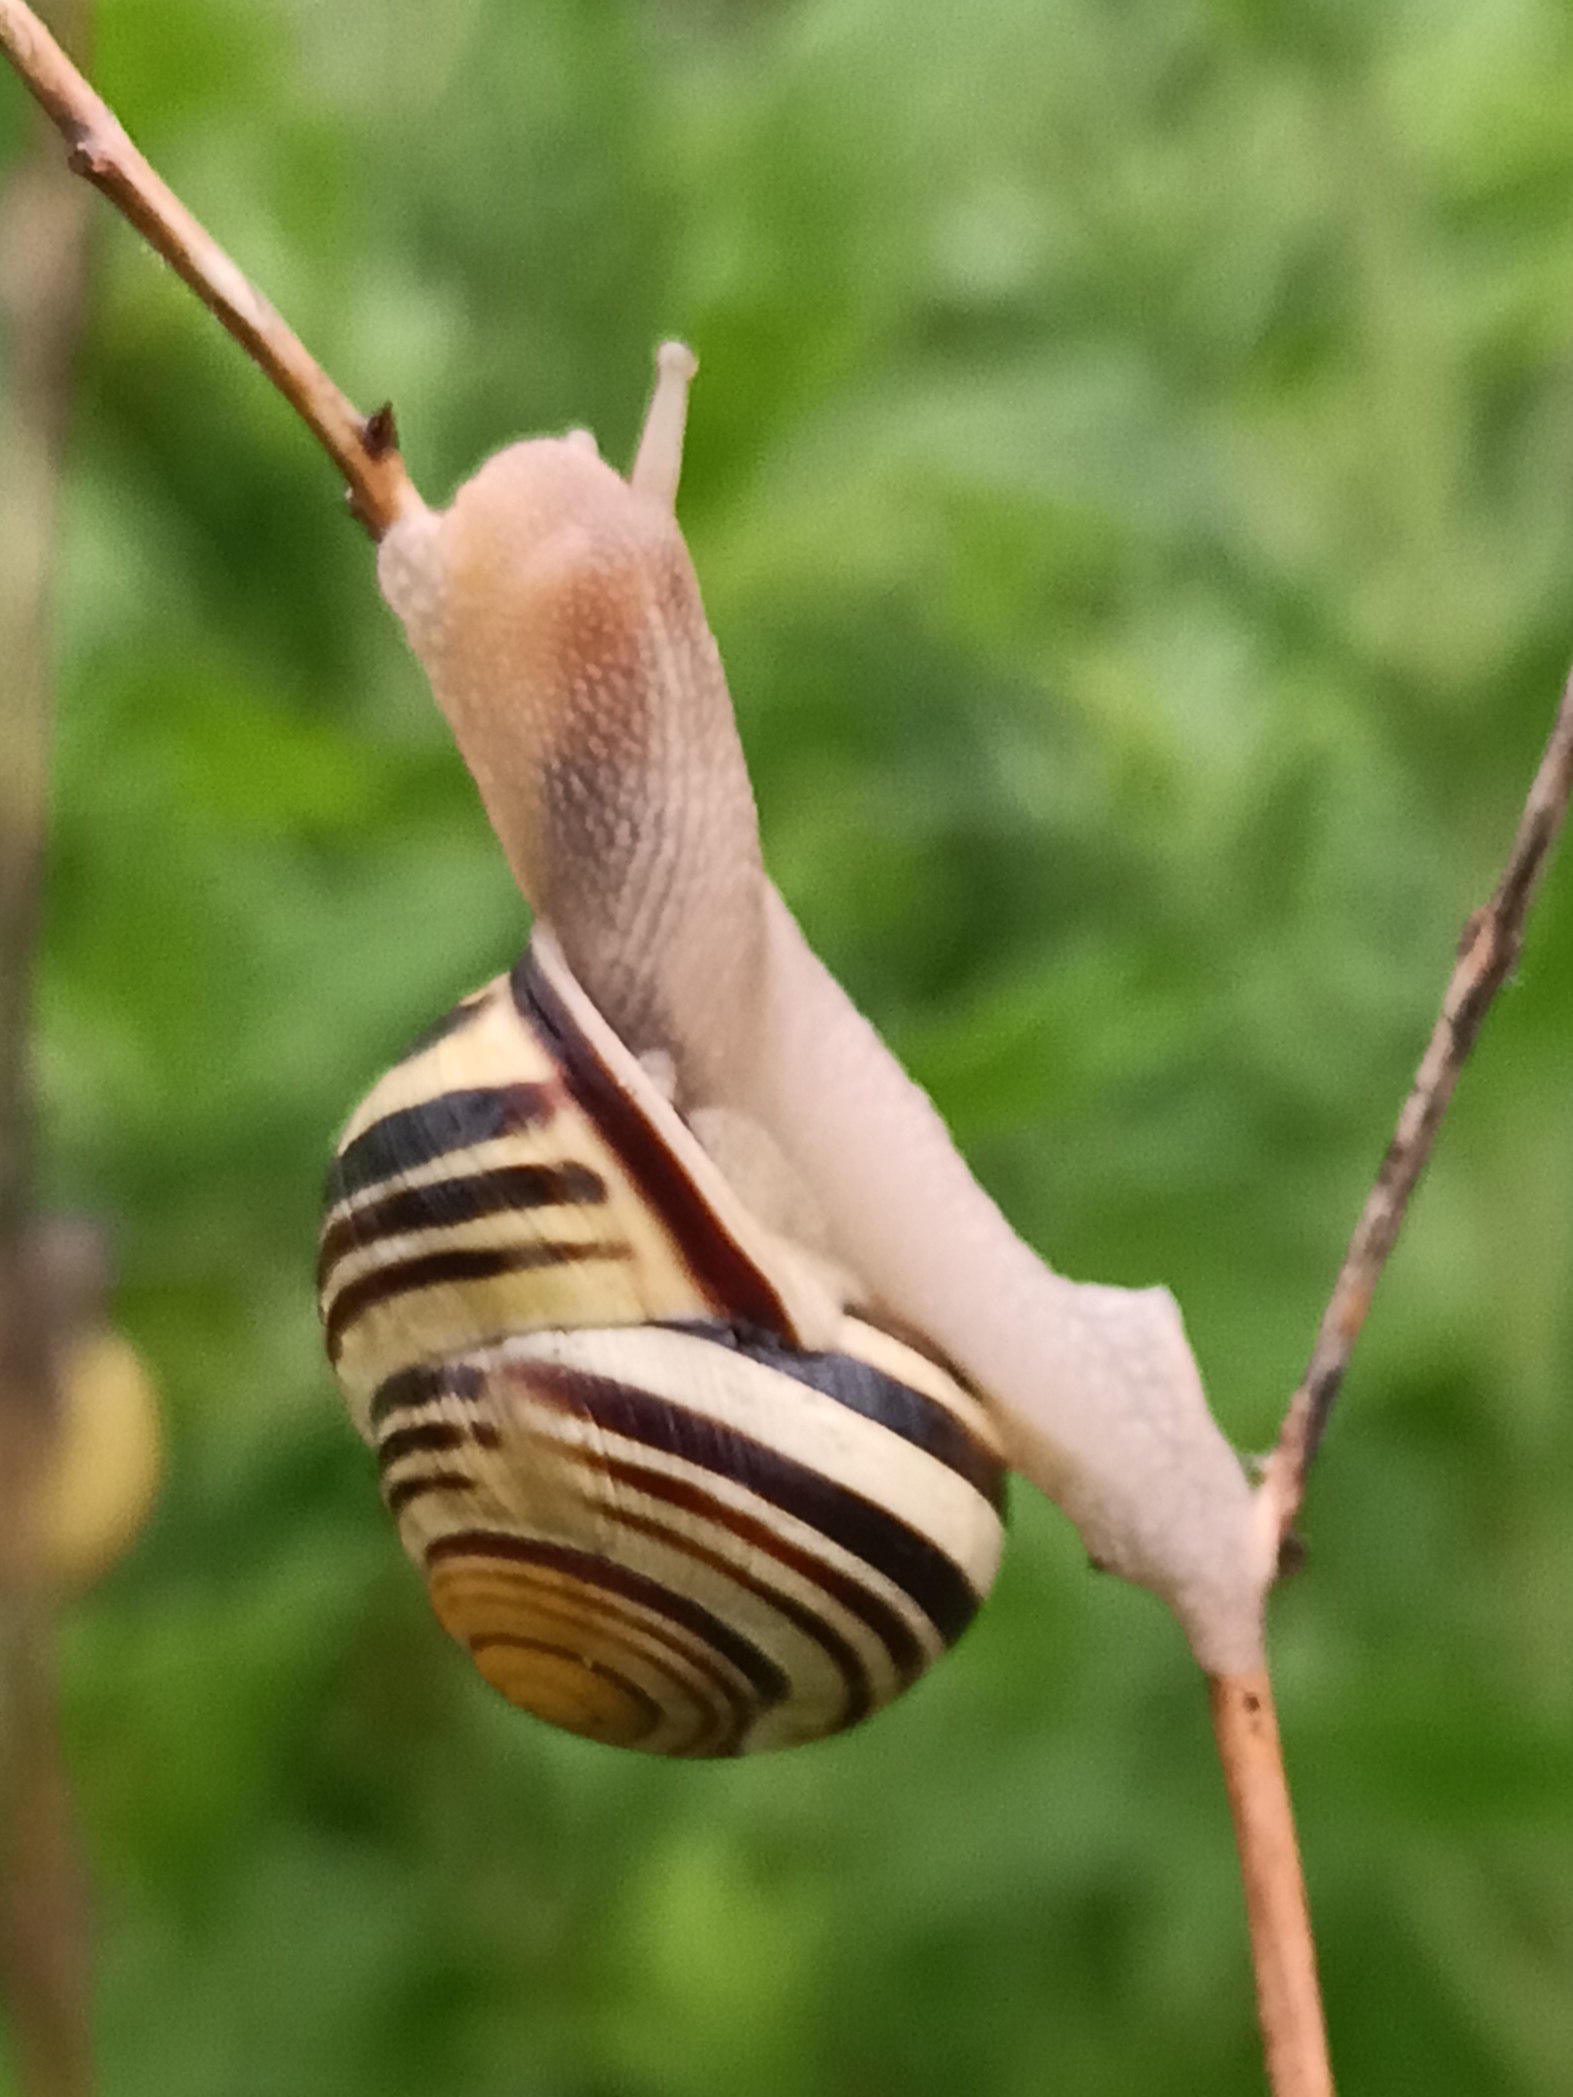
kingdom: Animalia
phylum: Mollusca
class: Gastropoda
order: Stylommatophora
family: Helicidae
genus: Cepaea
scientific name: Cepaea nemoralis
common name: Lundsnegl
